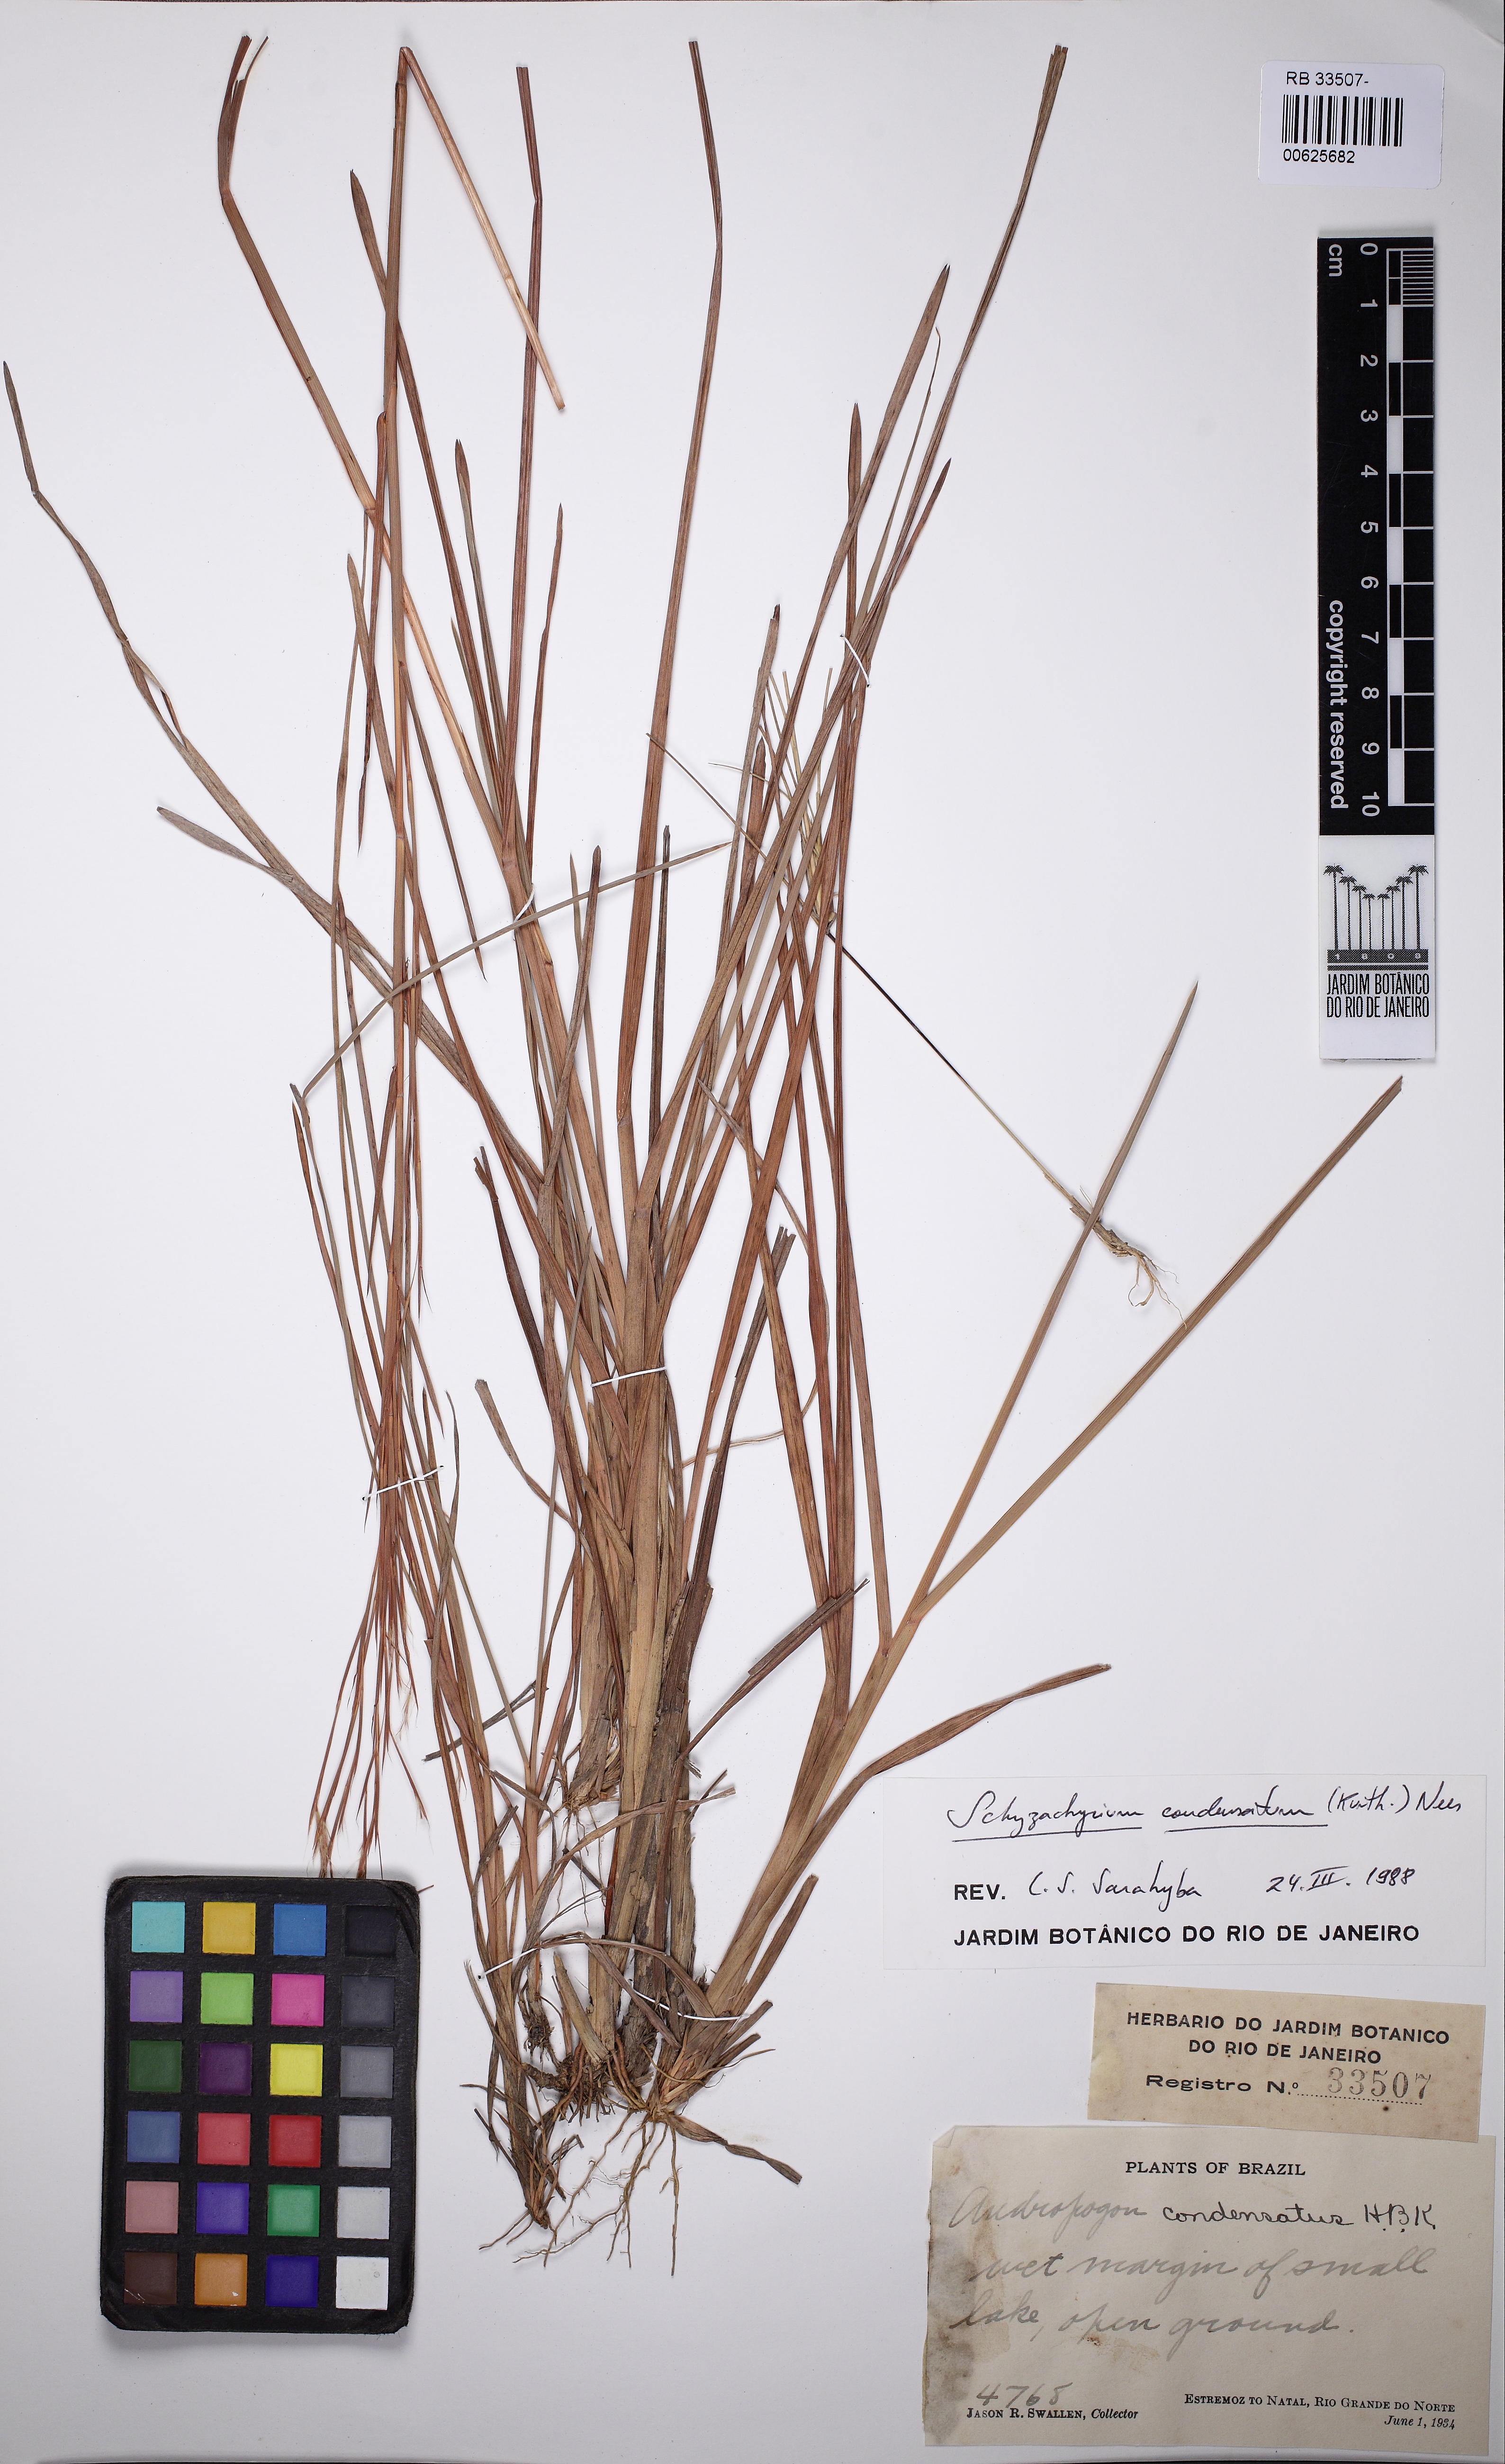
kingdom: Plantae
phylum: Tracheophyta
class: Liliopsida
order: Poales
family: Poaceae
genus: Schizachyrium
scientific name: Schizachyrium condensatum
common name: Bush beardgrass
